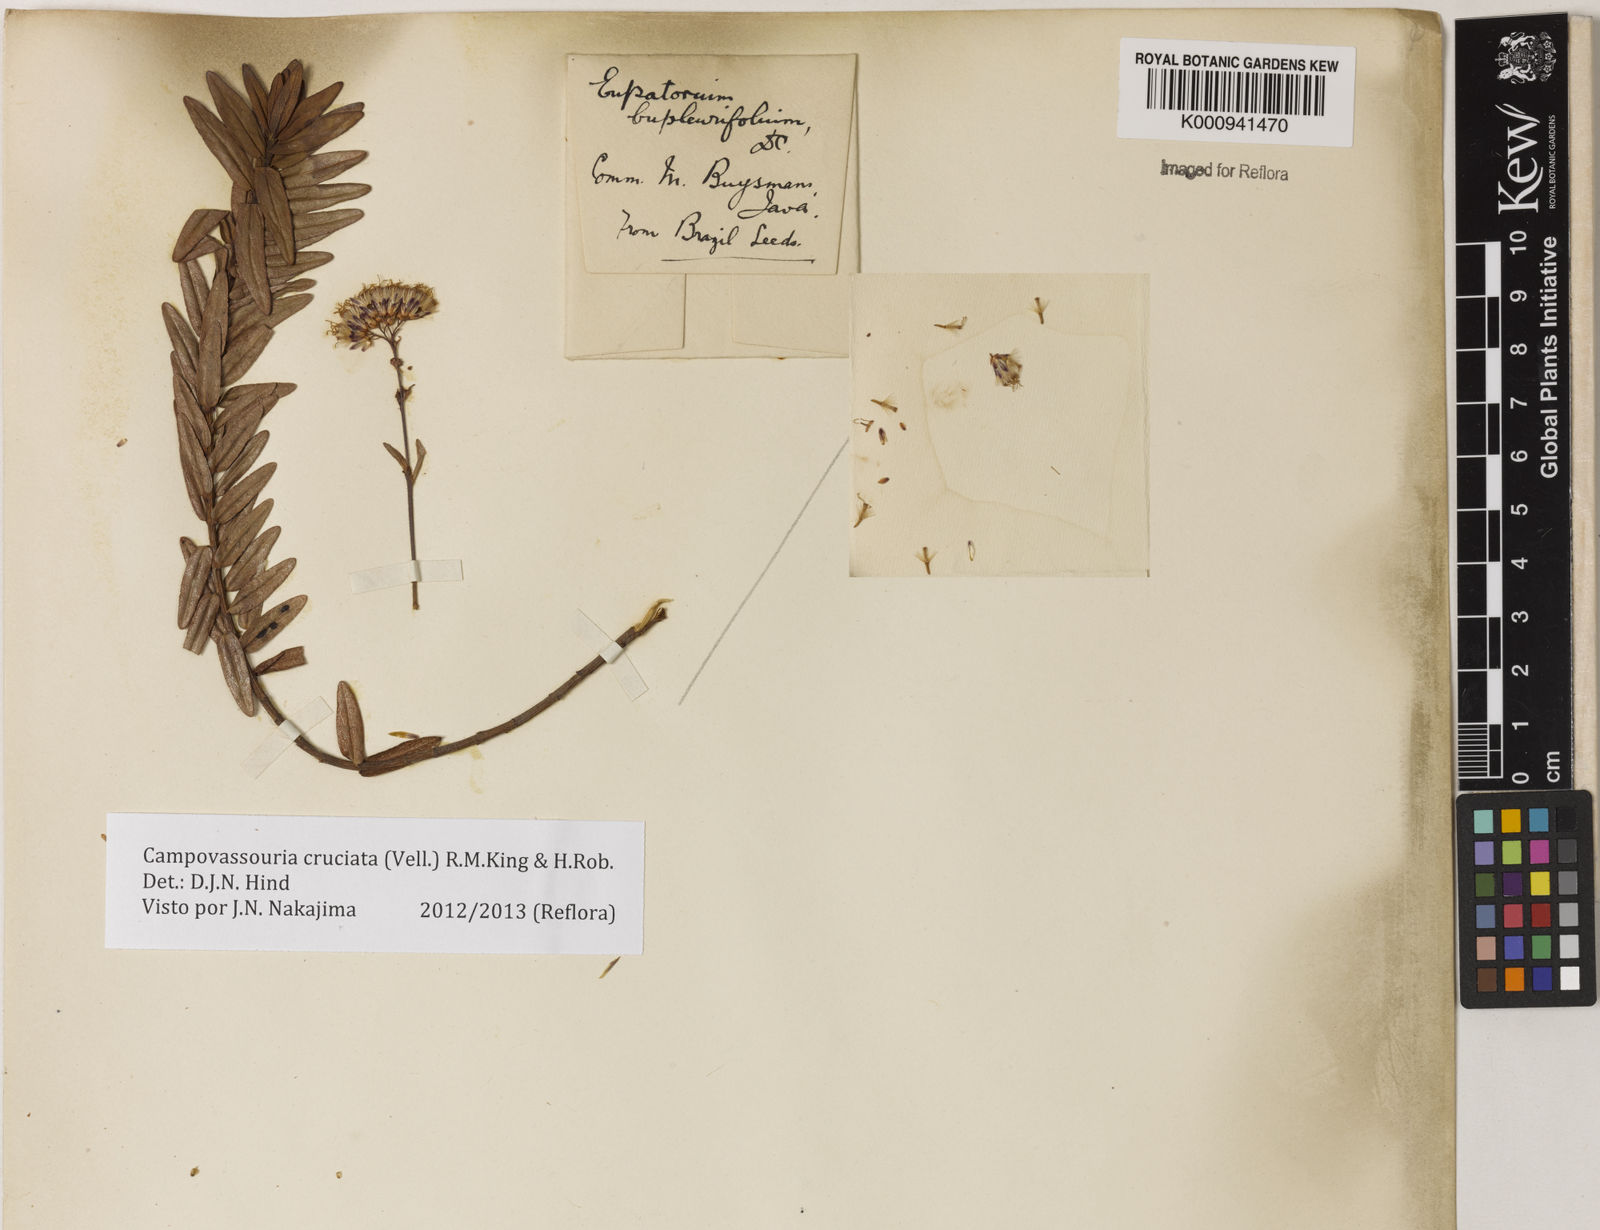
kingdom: Plantae
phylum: Tracheophyta
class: Magnoliopsida
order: Asterales
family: Asteraceae
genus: Campovassouria
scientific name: Campovassouria cruciata
